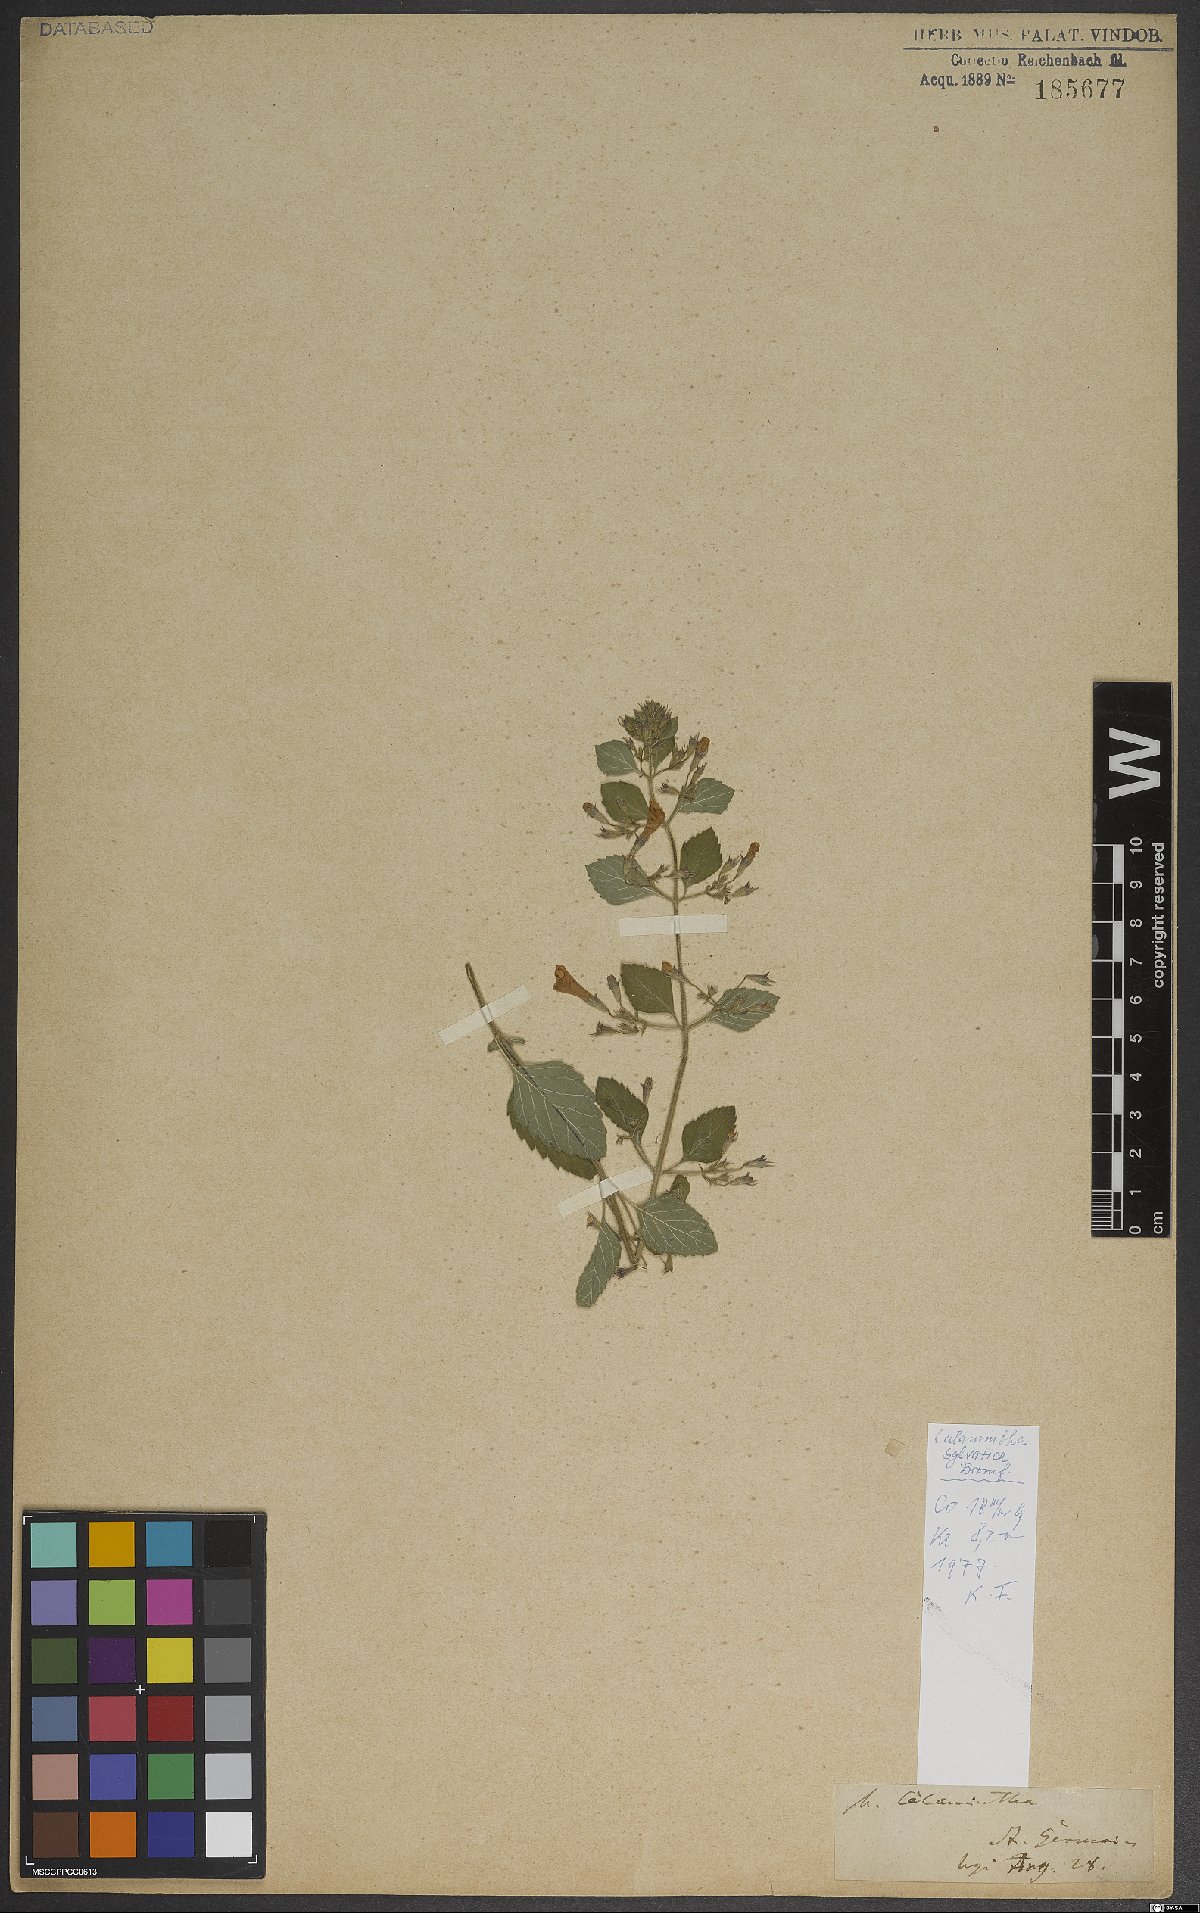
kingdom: Plantae
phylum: Tracheophyta
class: Magnoliopsida
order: Lamiales
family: Lamiaceae
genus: Clinopodium
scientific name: Clinopodium menthifolium
